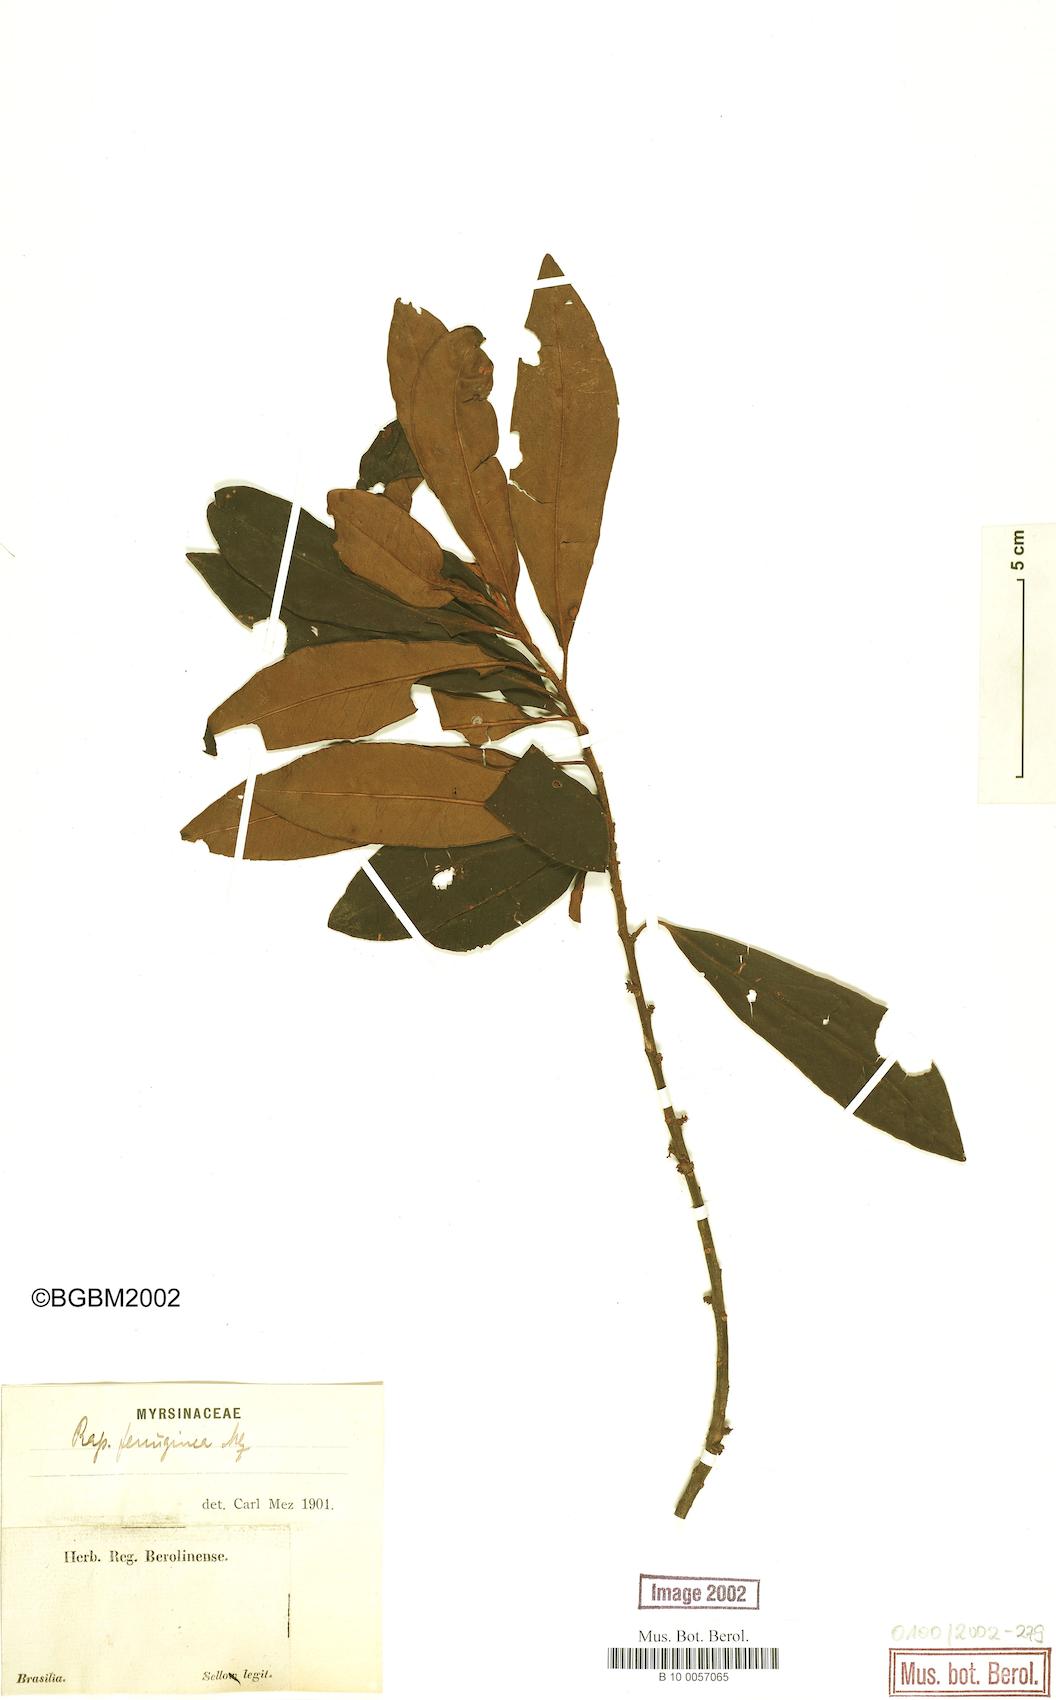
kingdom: Plantae
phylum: Tracheophyta
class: Magnoliopsida
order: Ericales
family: Primulaceae
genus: Myrsine
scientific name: Myrsine coriacea
